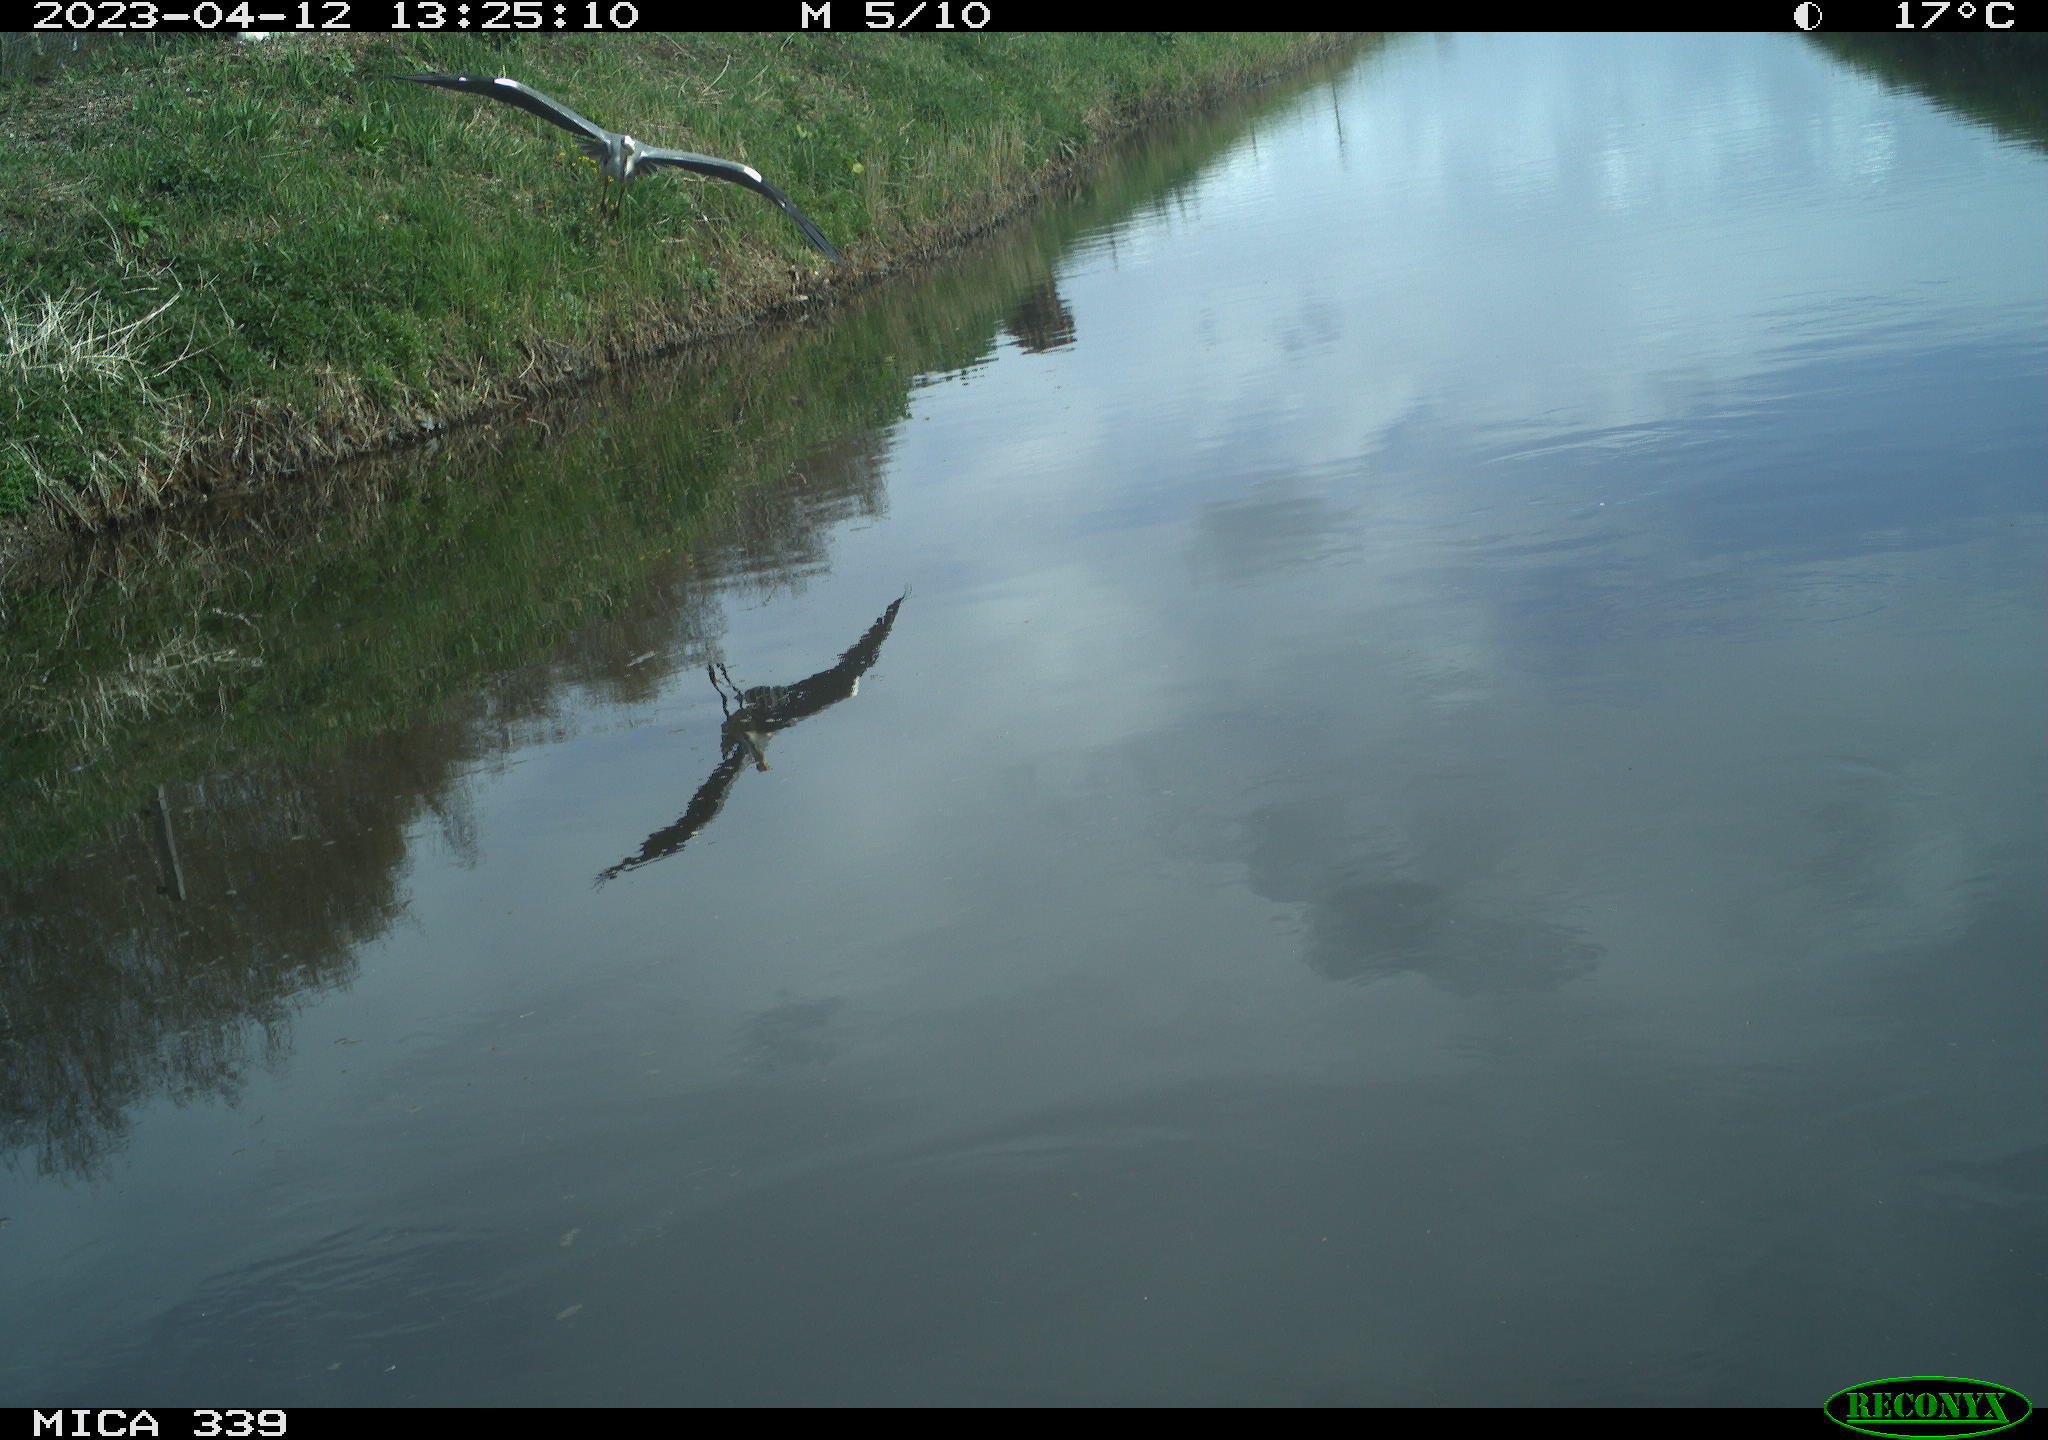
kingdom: Animalia
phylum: Chordata
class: Aves
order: Pelecaniformes
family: Ardeidae
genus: Ardea
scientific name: Ardea
